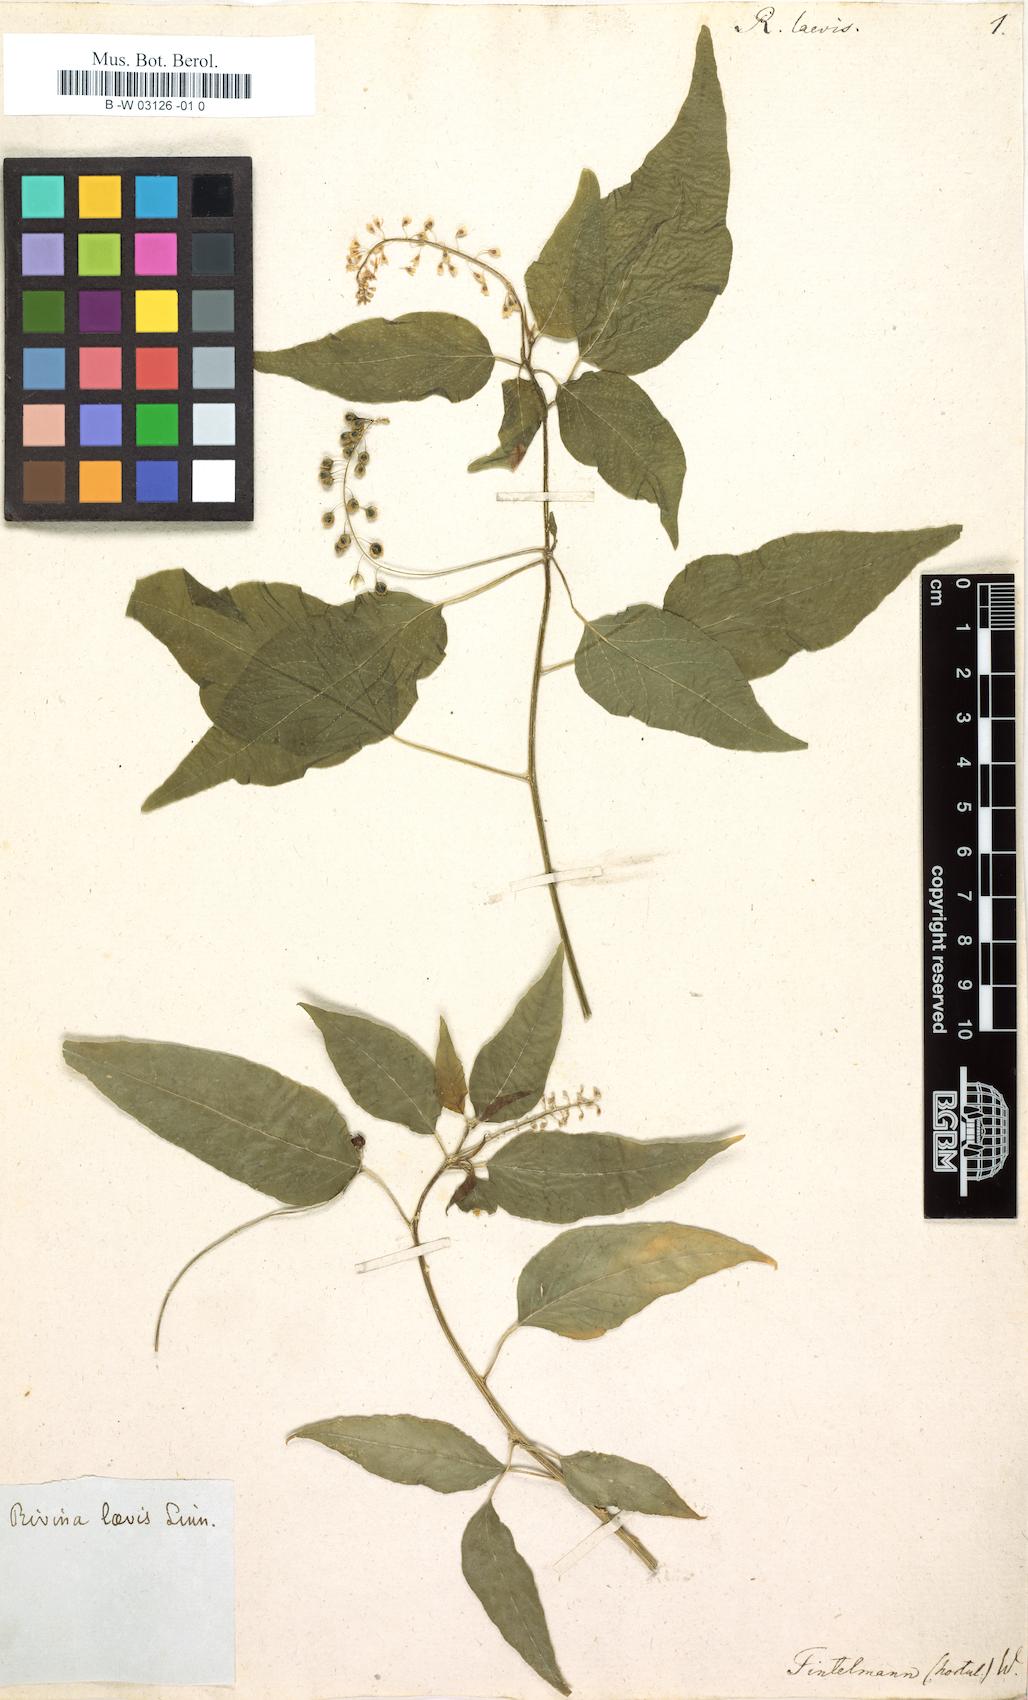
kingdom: Plantae
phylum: Tracheophyta
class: Magnoliopsida
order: Caryophyllales
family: Phytolaccaceae
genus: Rivina
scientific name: Rivina humilis
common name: Rougeplant
